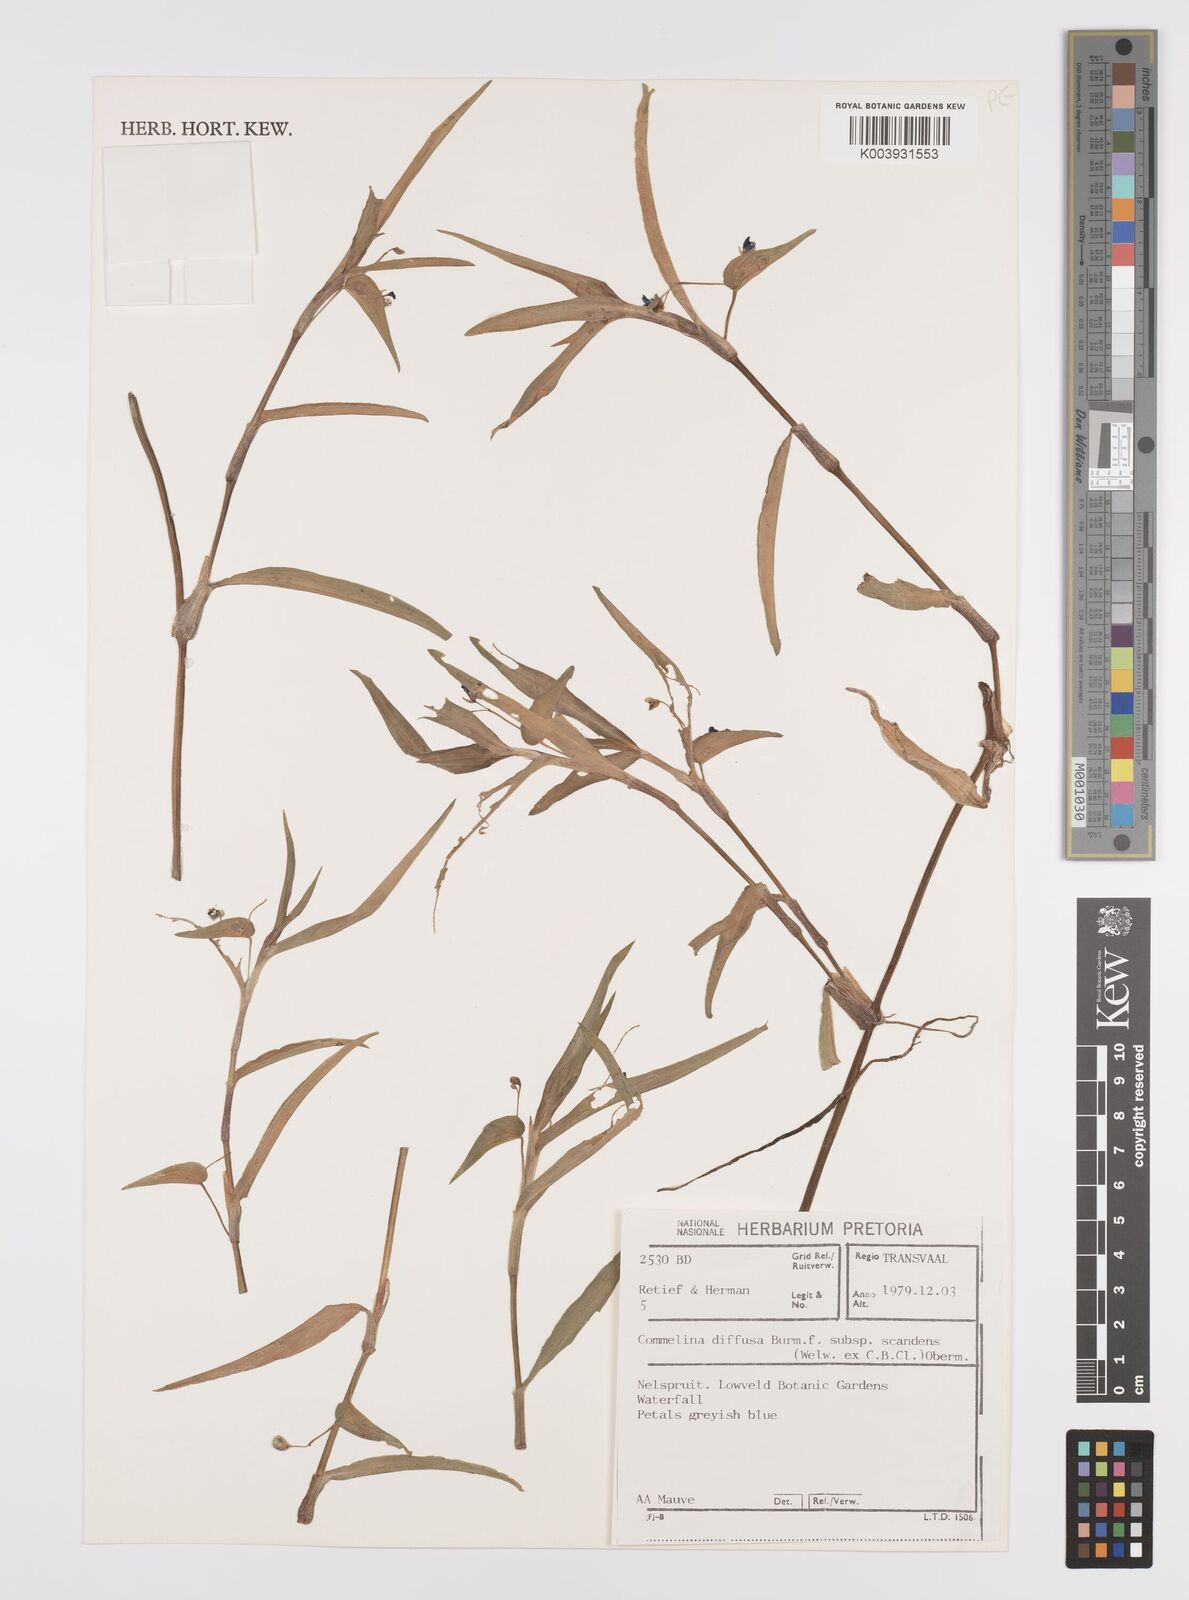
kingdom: Plantae
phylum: Tracheophyta
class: Liliopsida
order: Commelinales
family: Commelinaceae
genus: Commelina
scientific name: Commelina scandens
